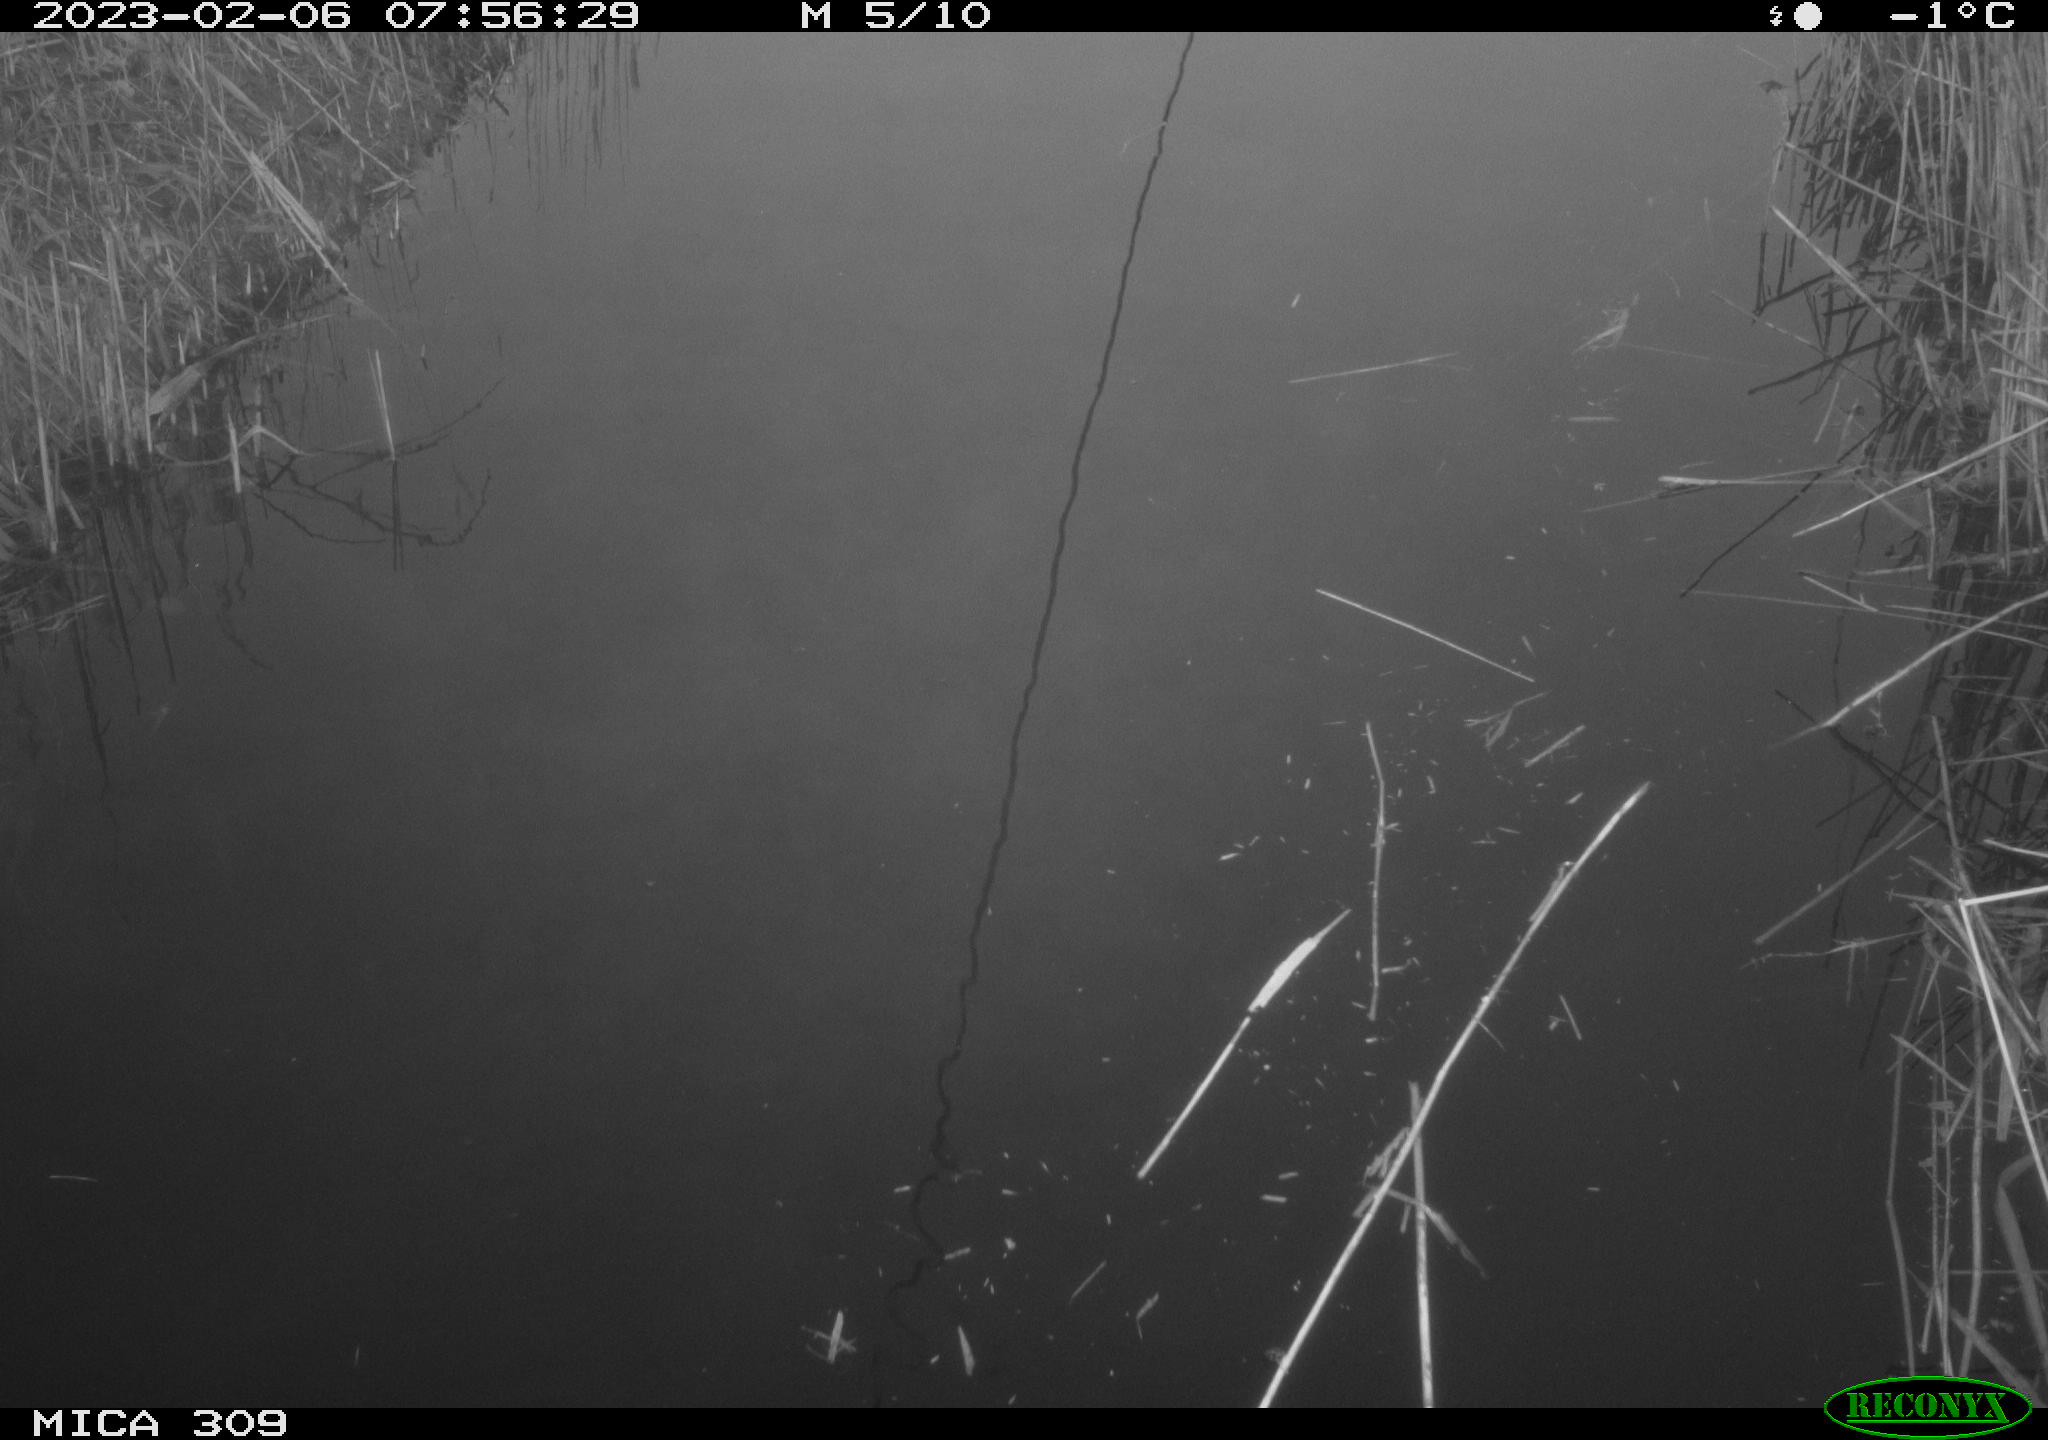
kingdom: Animalia
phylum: Chordata
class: Aves
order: Anseriformes
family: Anatidae
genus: Anas
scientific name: Anas
